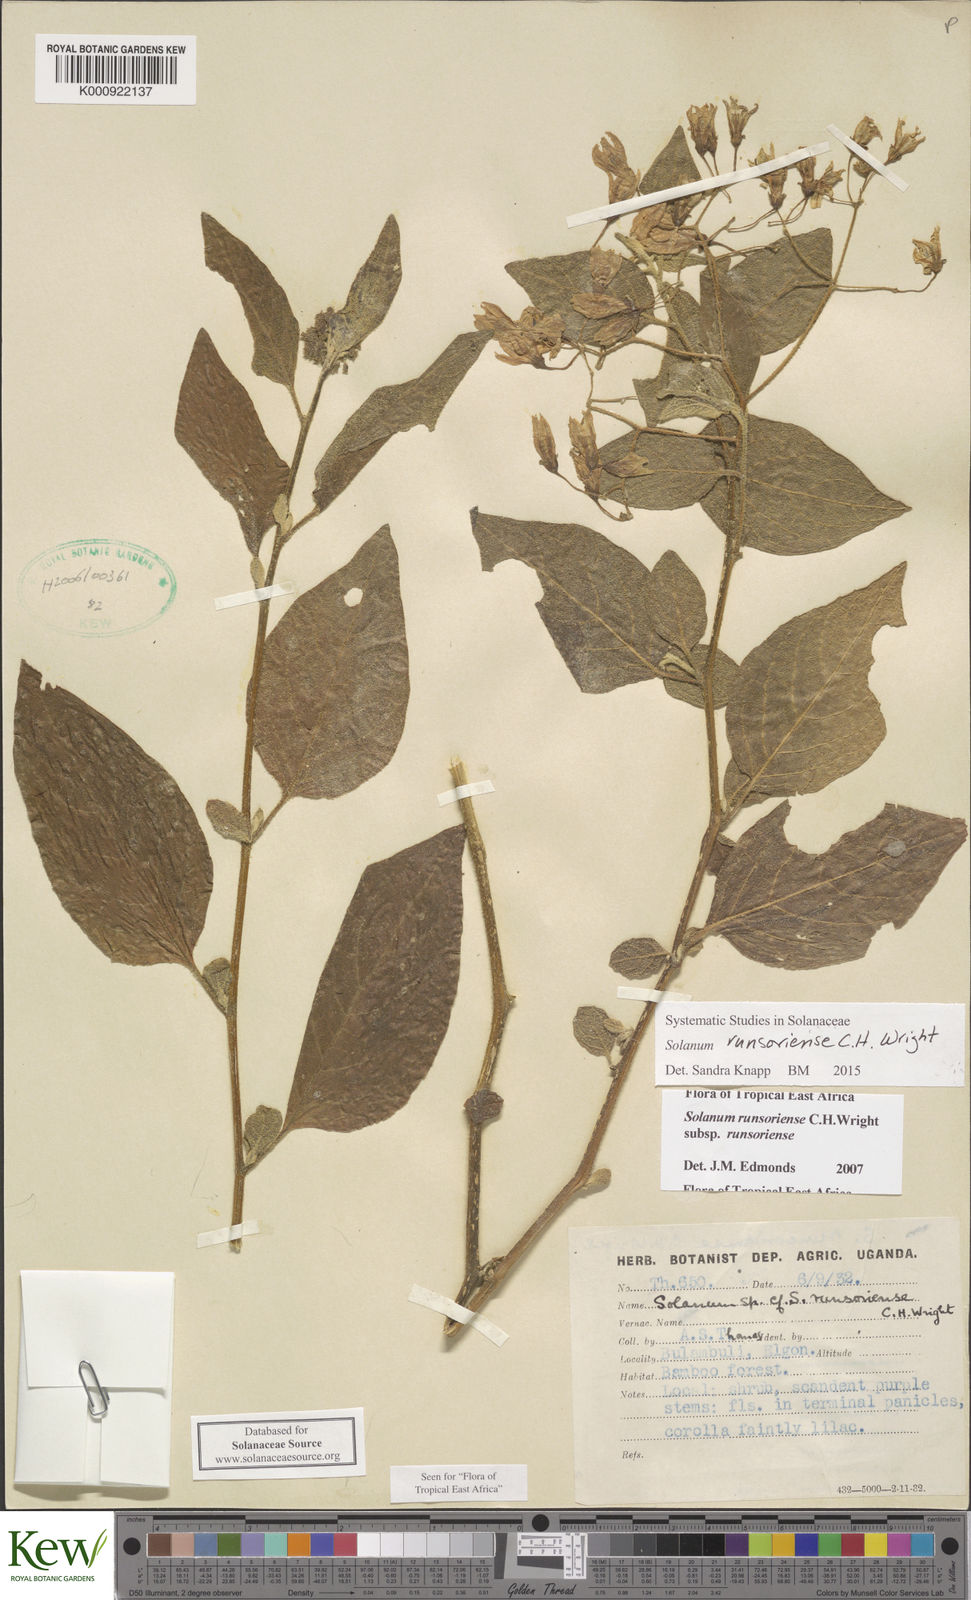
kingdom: Plantae
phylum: Tracheophyta
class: Magnoliopsida
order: Solanales
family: Solanaceae
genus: Solanum
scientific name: Solanum runsoriense
